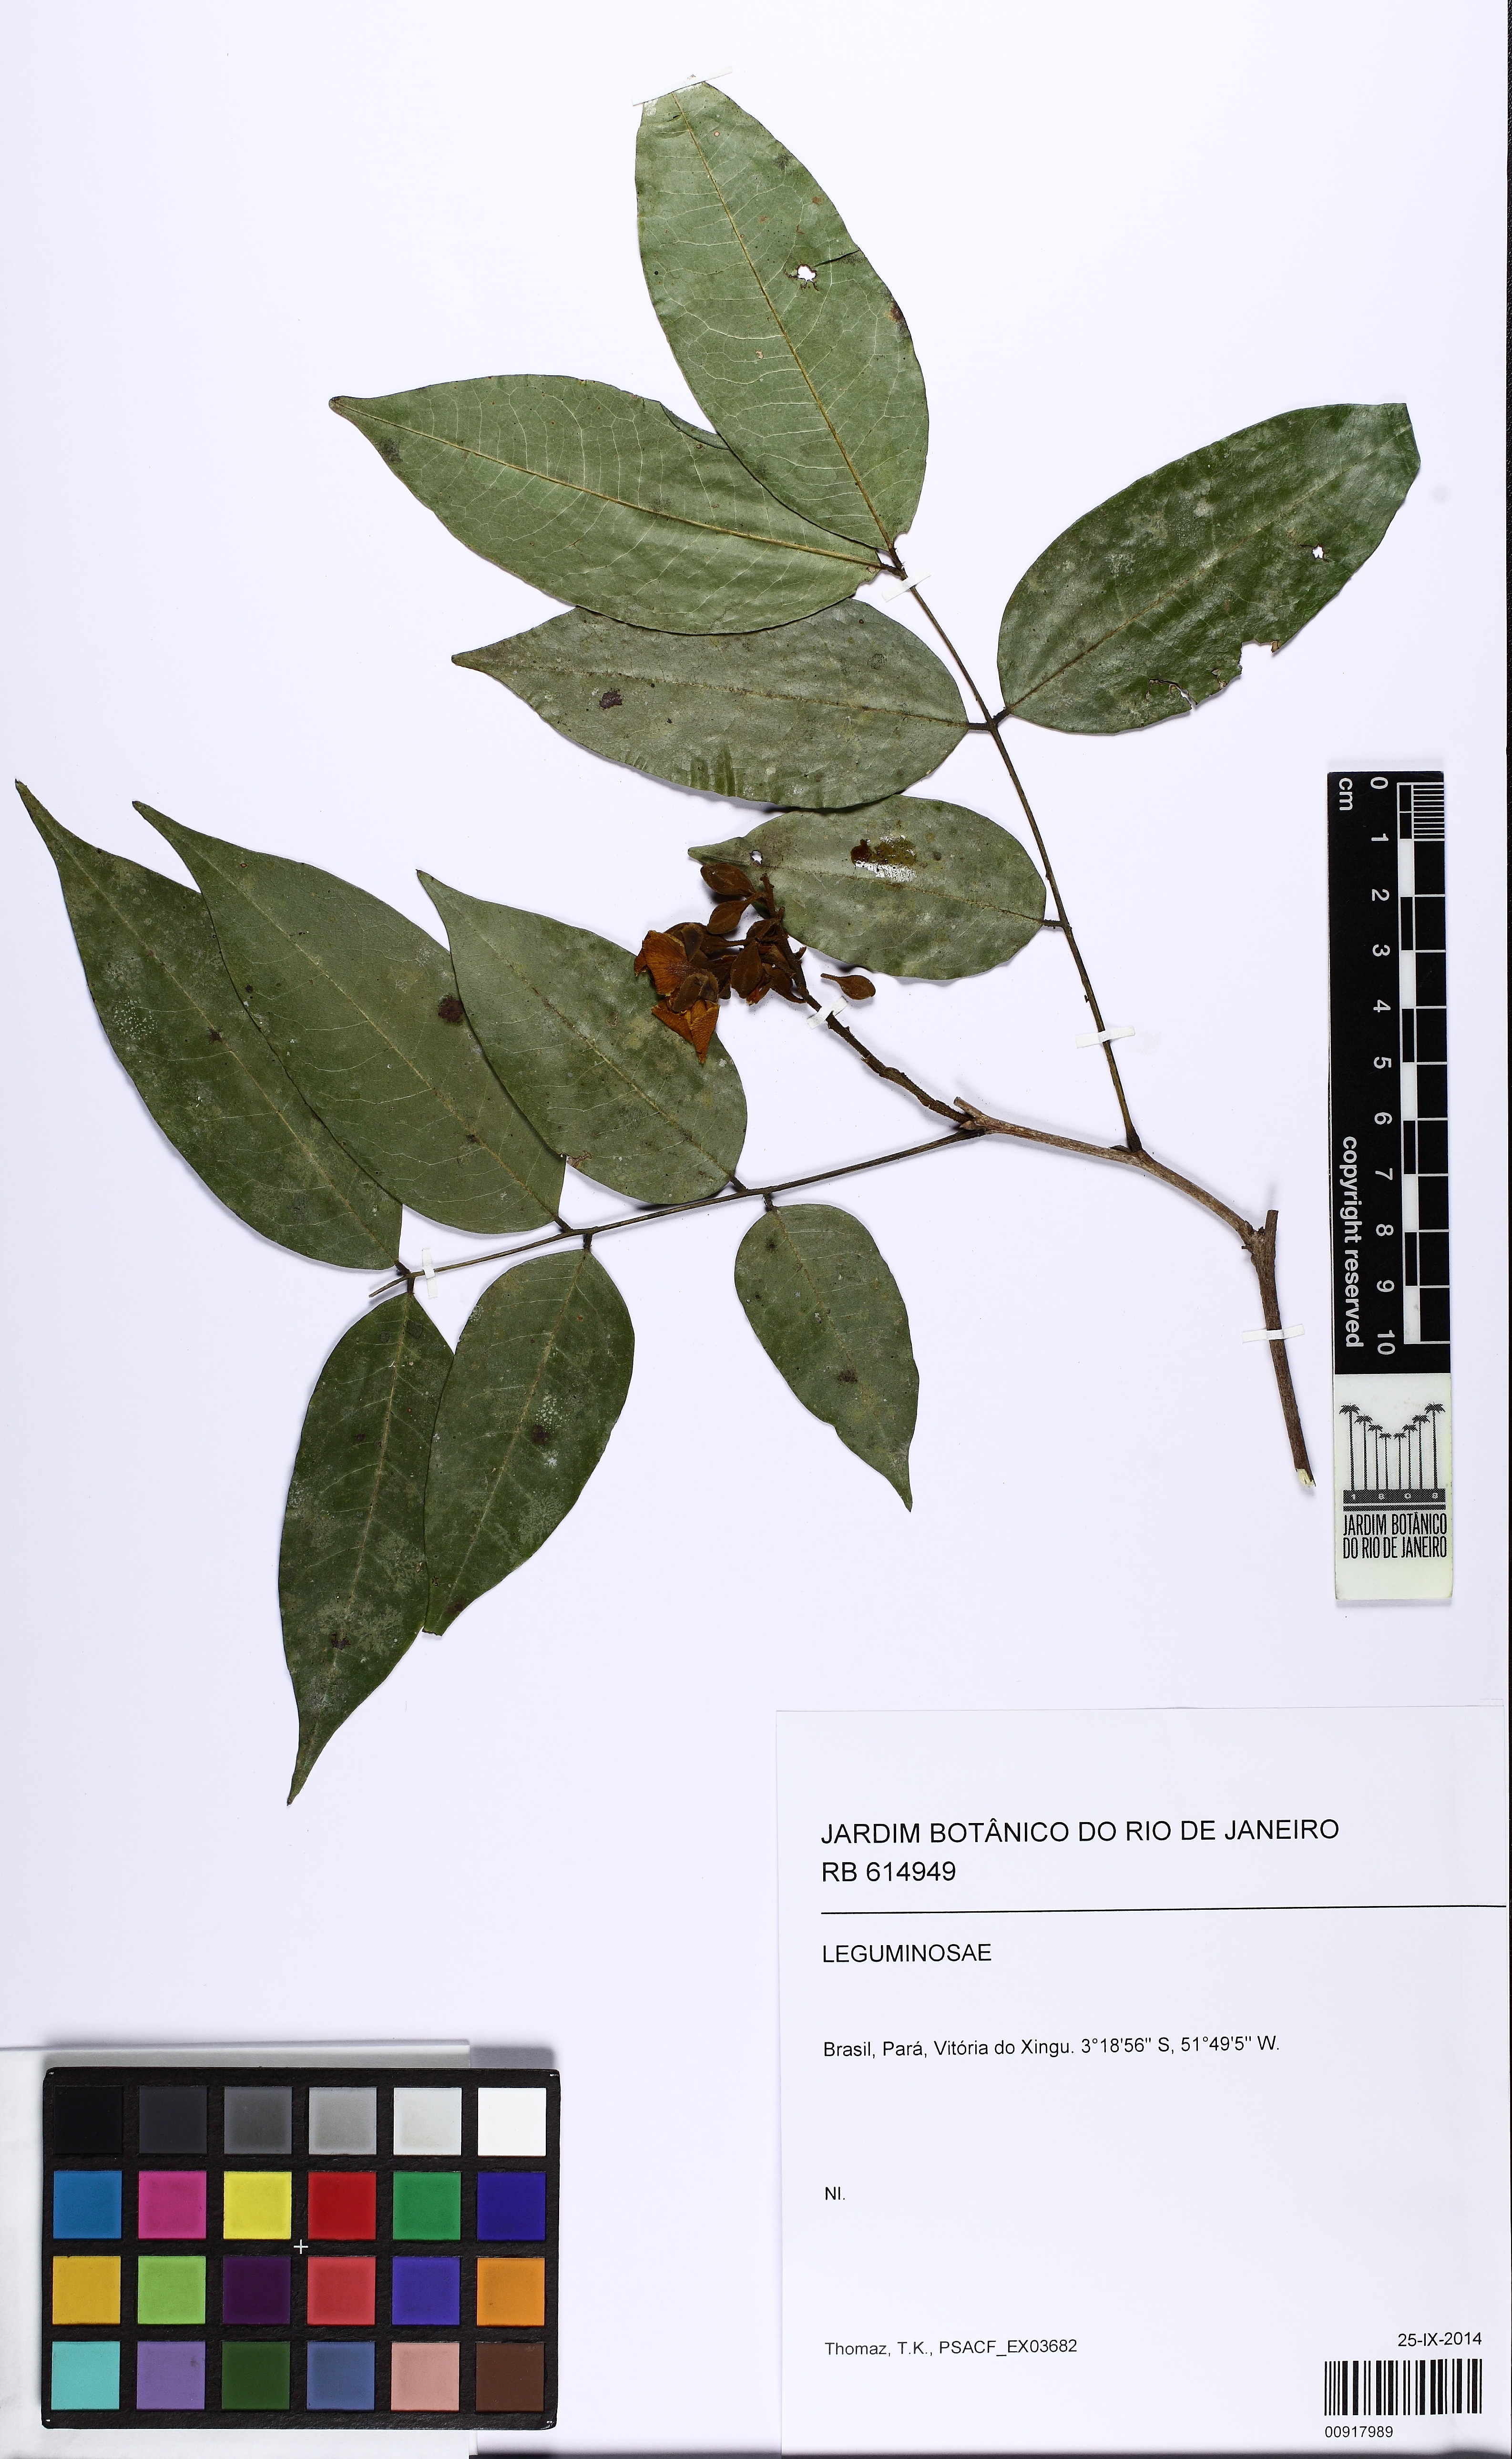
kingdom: Plantae
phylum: Tracheophyta
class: Magnoliopsida
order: Fabales
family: Fabaceae
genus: Swartzia
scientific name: Swartzia
